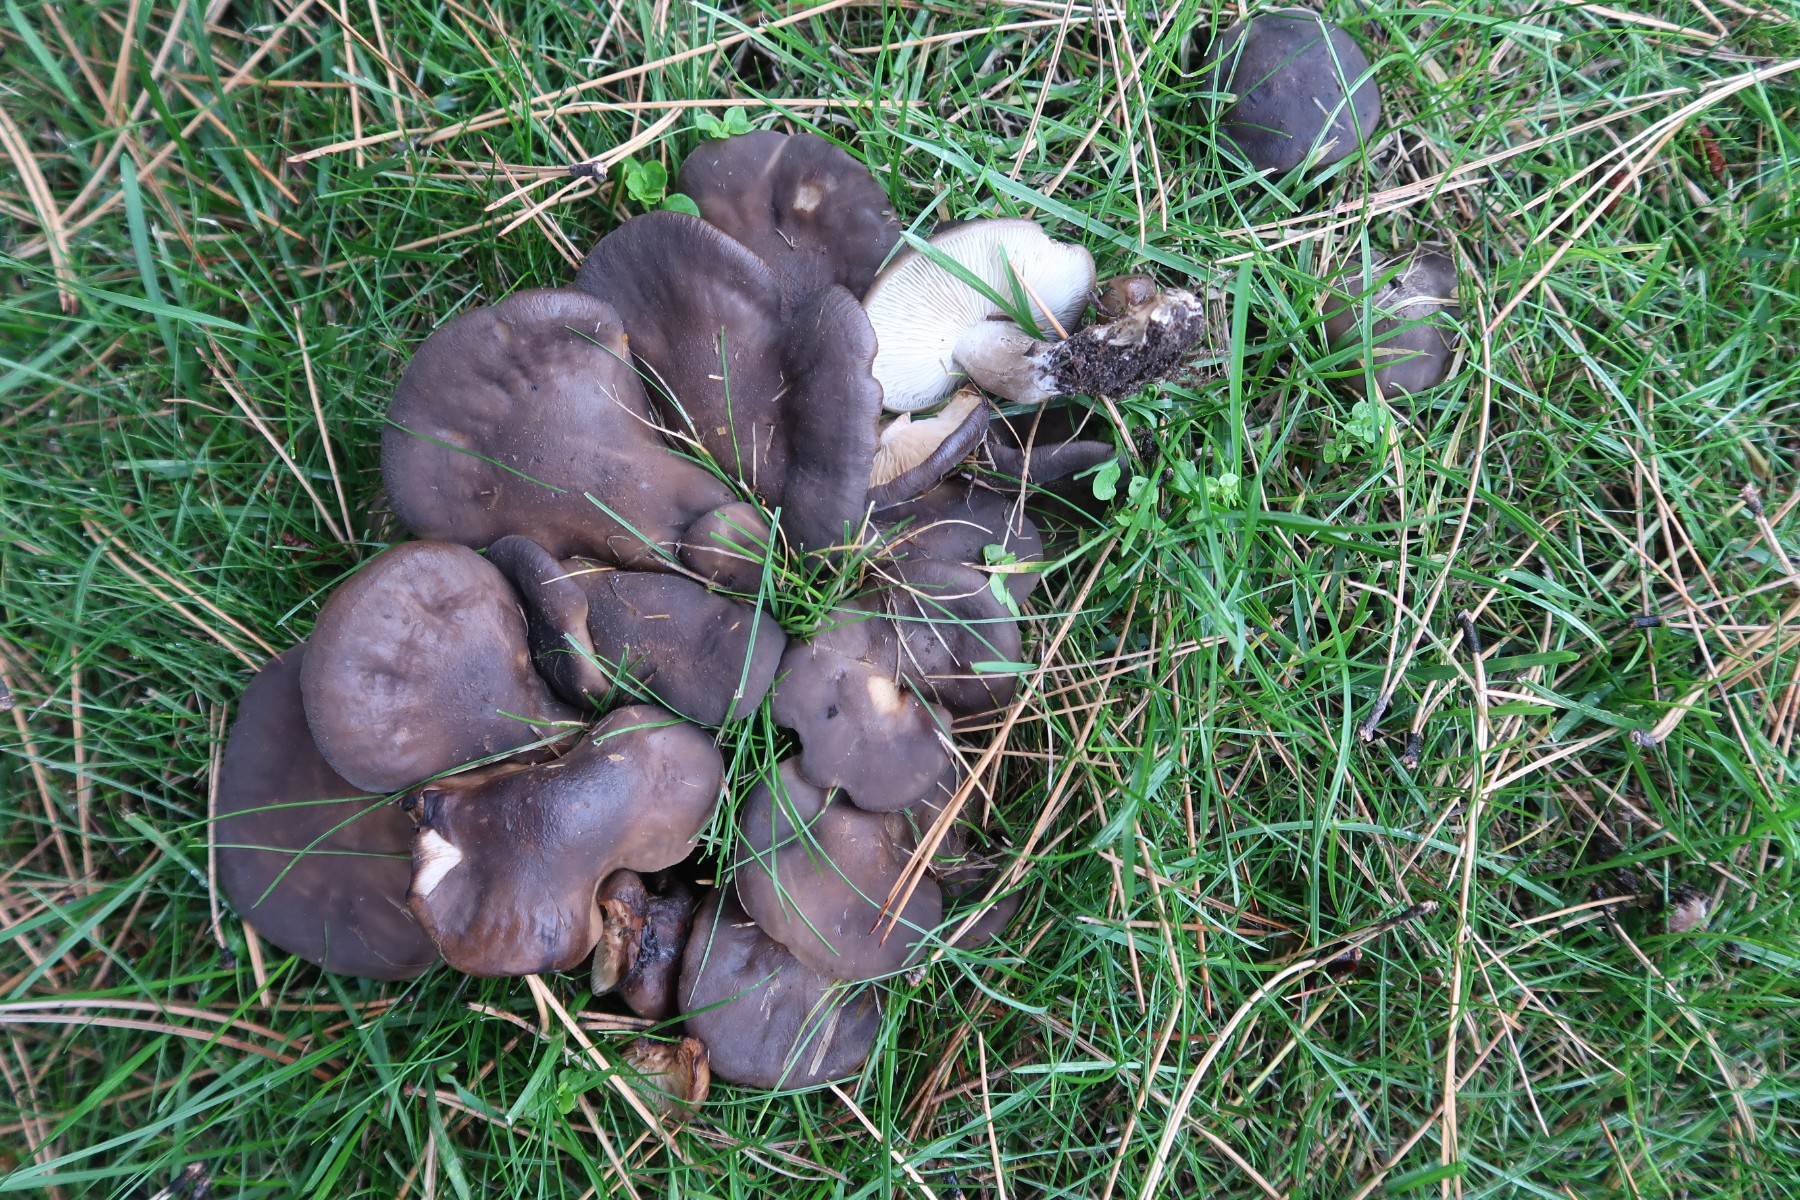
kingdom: Fungi
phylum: Basidiomycota
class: Agaricomycetes
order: Agaricales
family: Lyophyllaceae
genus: Lyophyllum
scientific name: Lyophyllum decastes
